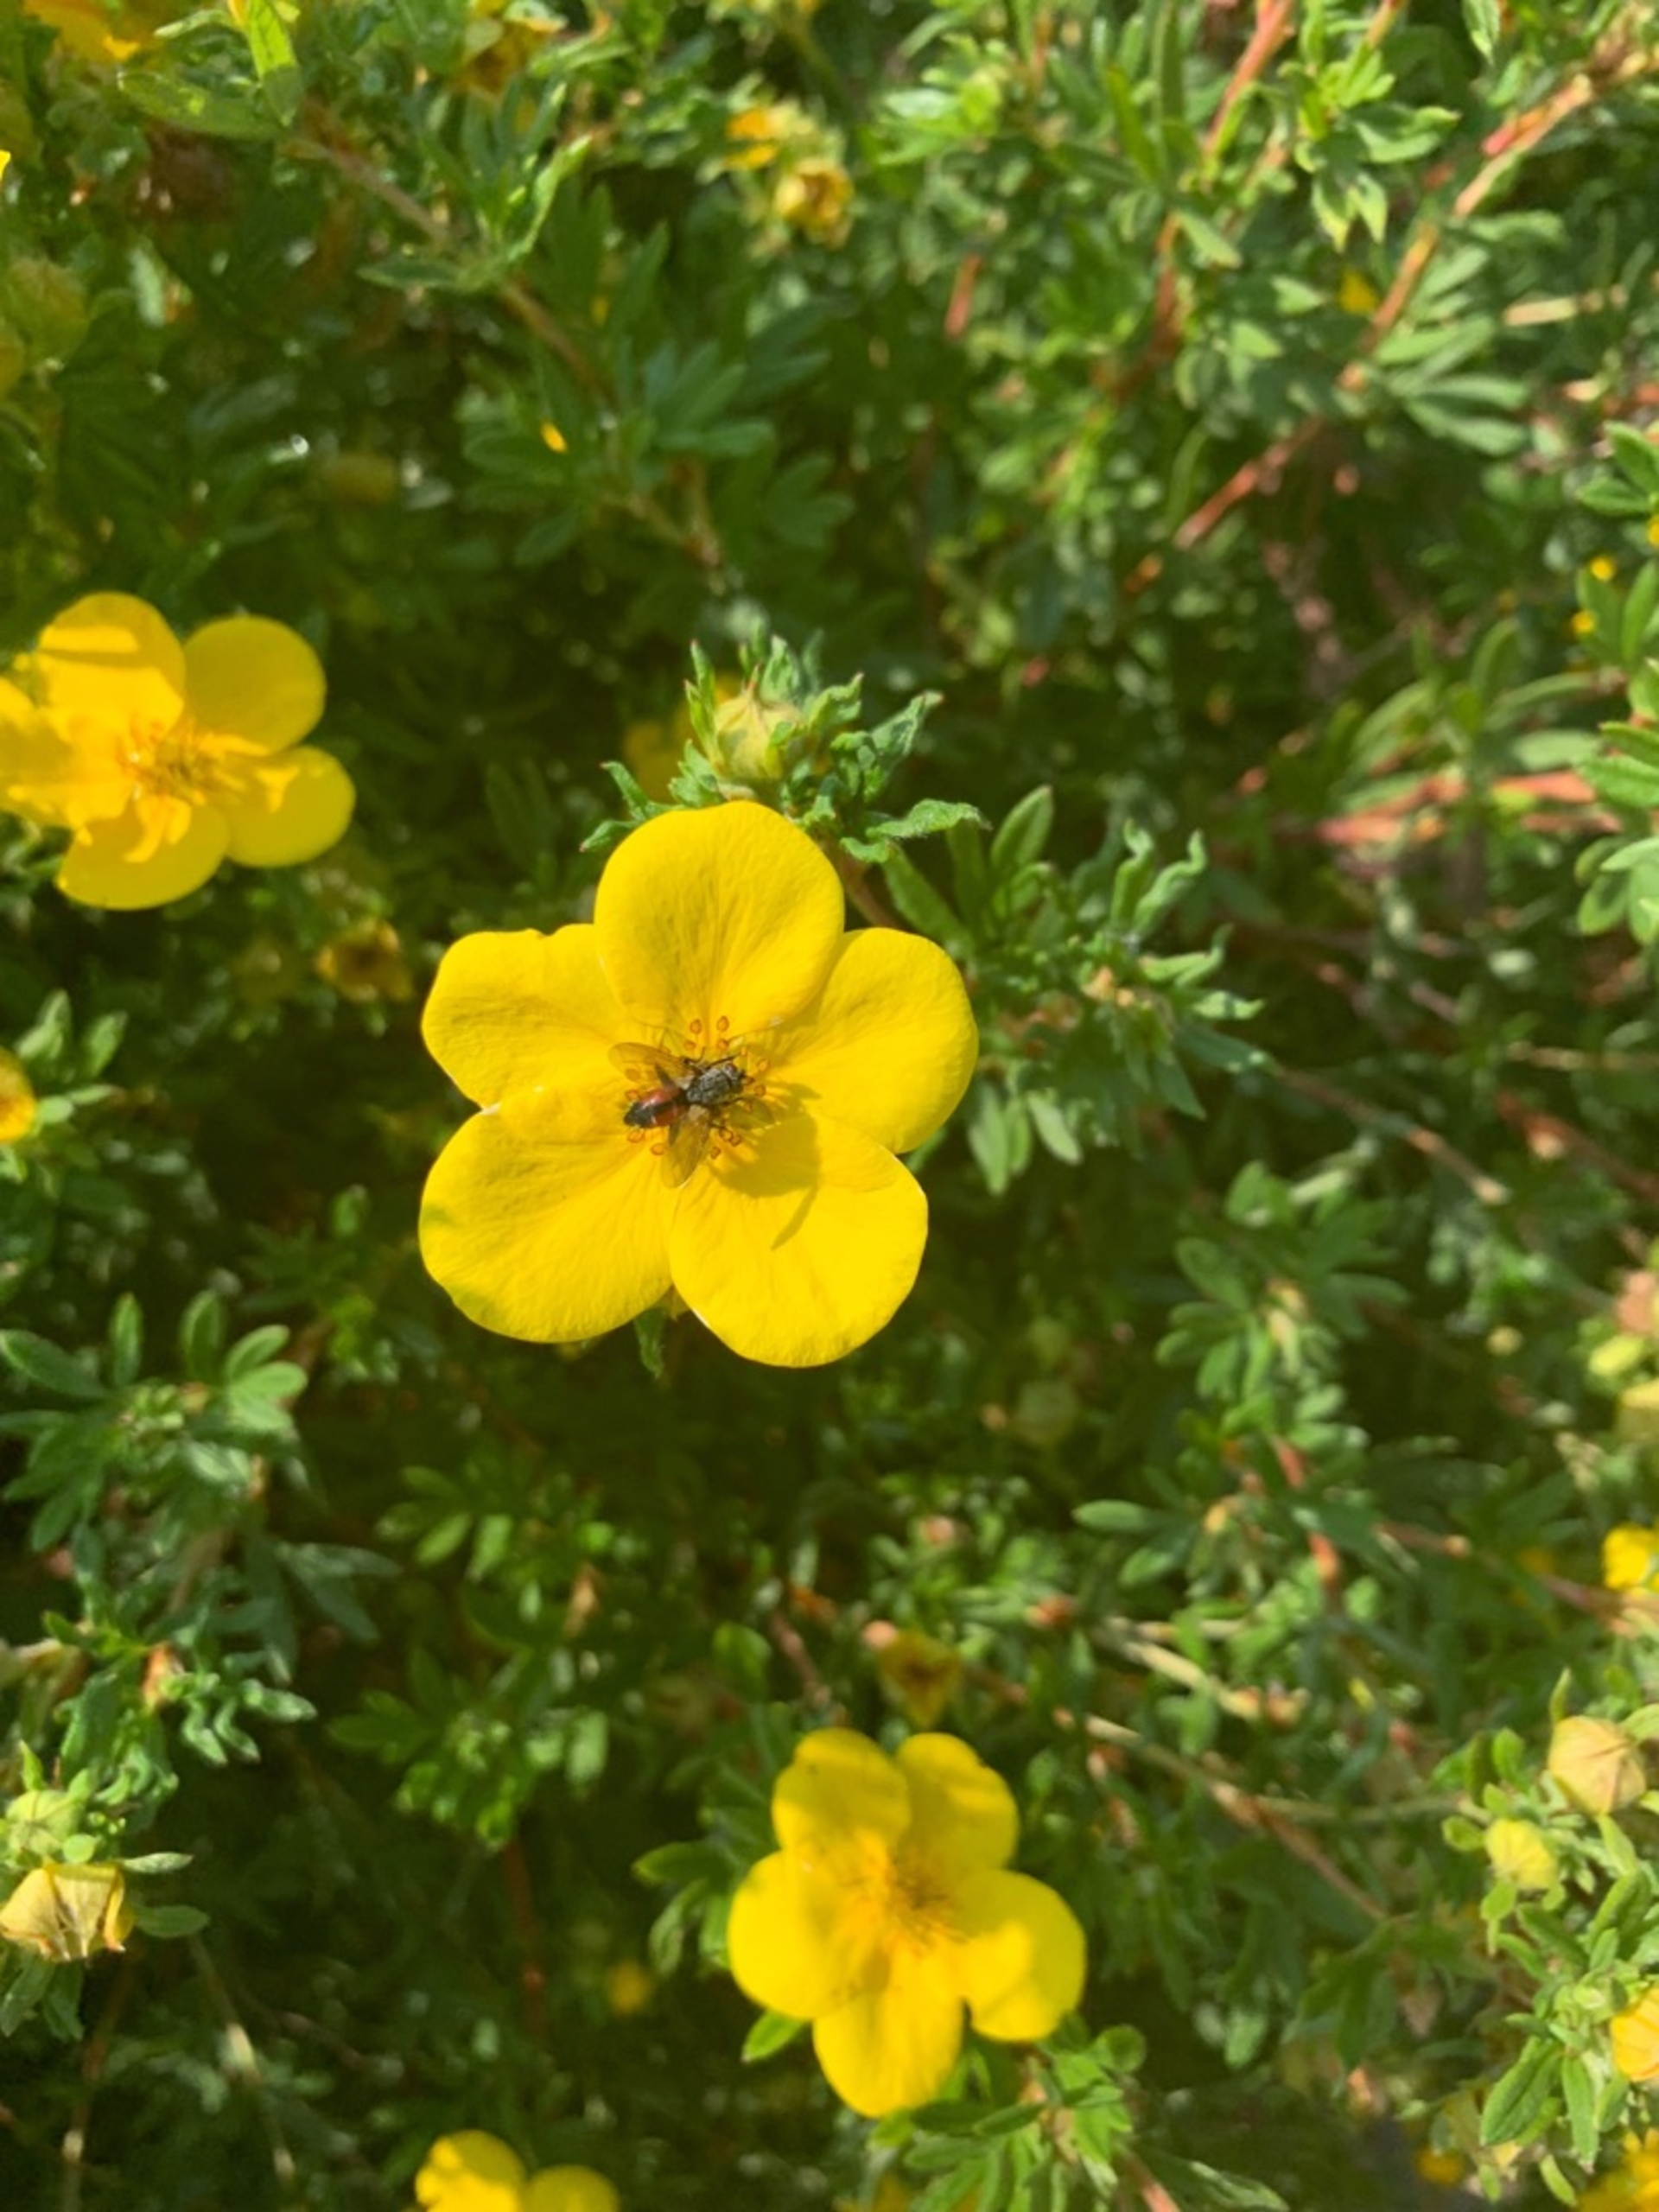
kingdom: Animalia
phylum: Arthropoda
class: Insecta
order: Diptera
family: Tachinidae
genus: Eriothrix
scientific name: Eriothrix rufomaculatus
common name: Rød snylteflue
